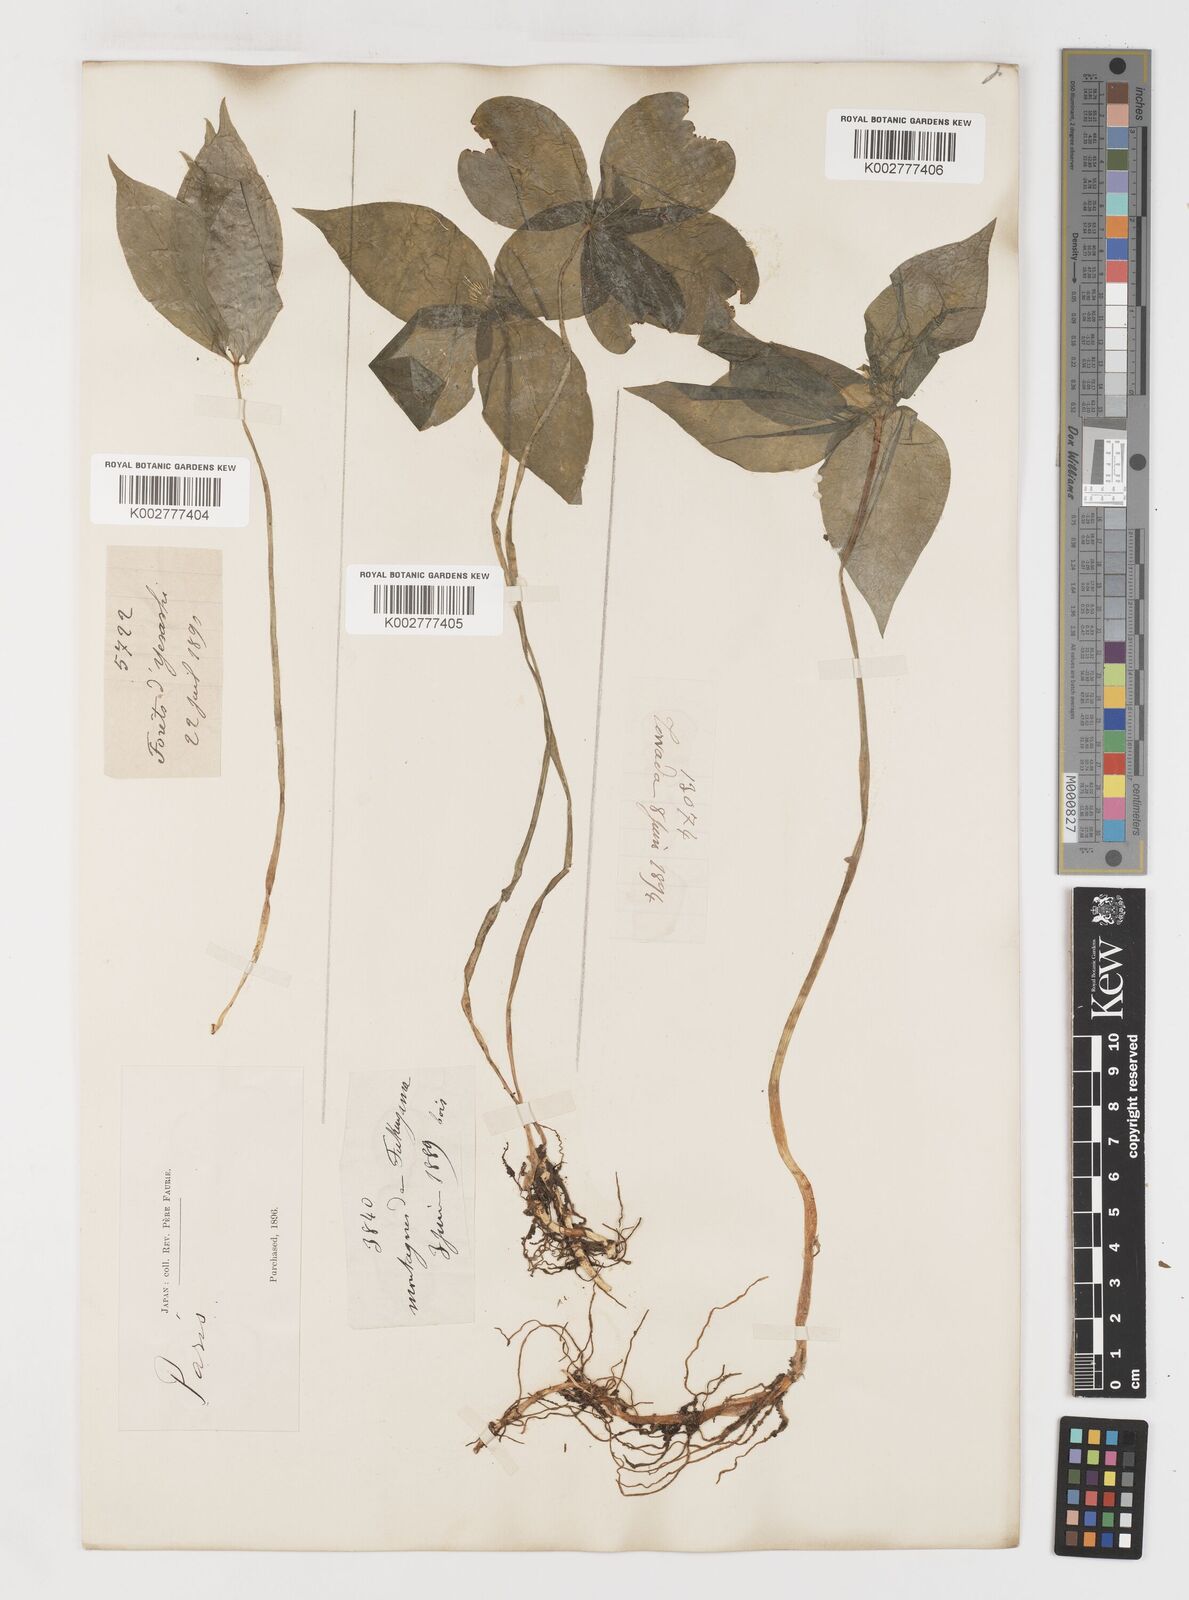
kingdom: Plantae
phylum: Tracheophyta
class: Liliopsida
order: Liliales
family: Melanthiaceae
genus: Paris
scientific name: Paris tetraphylla
